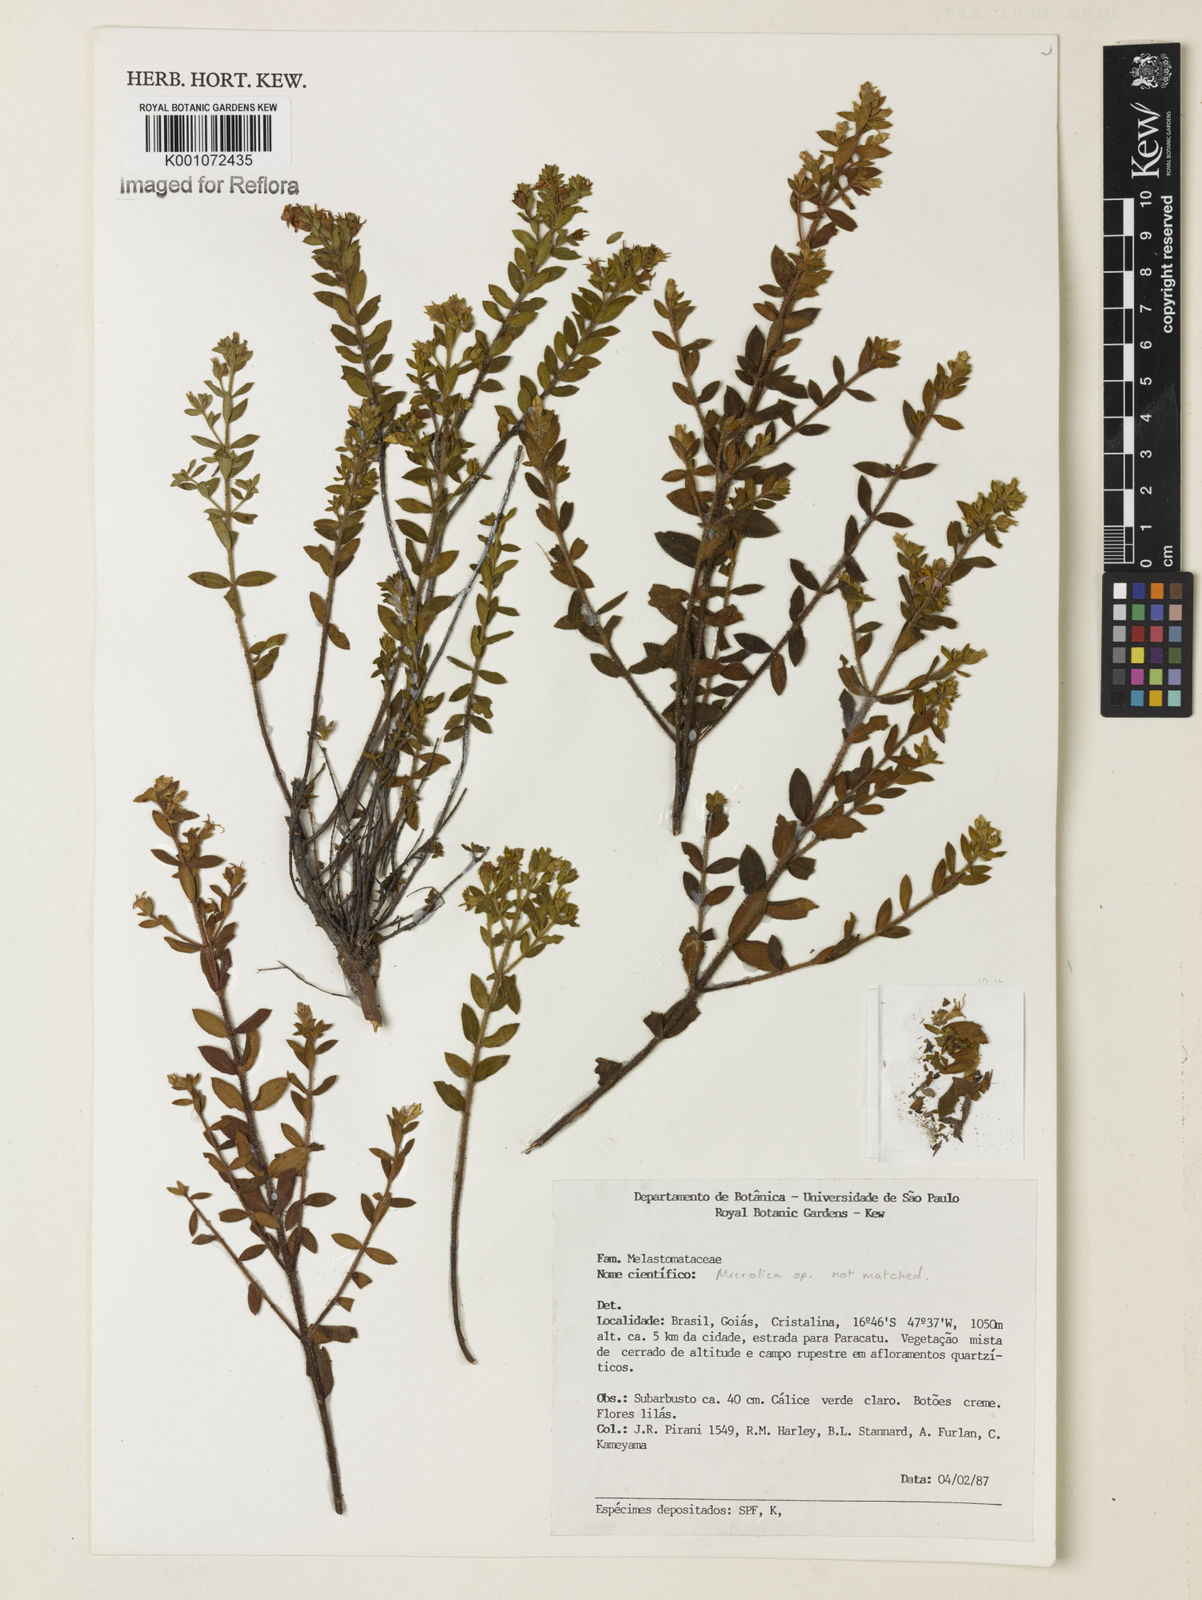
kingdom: Plantae
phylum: Tracheophyta
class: Magnoliopsida
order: Myrtales
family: Melastomataceae
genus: Microlicia
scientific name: Microlicia
